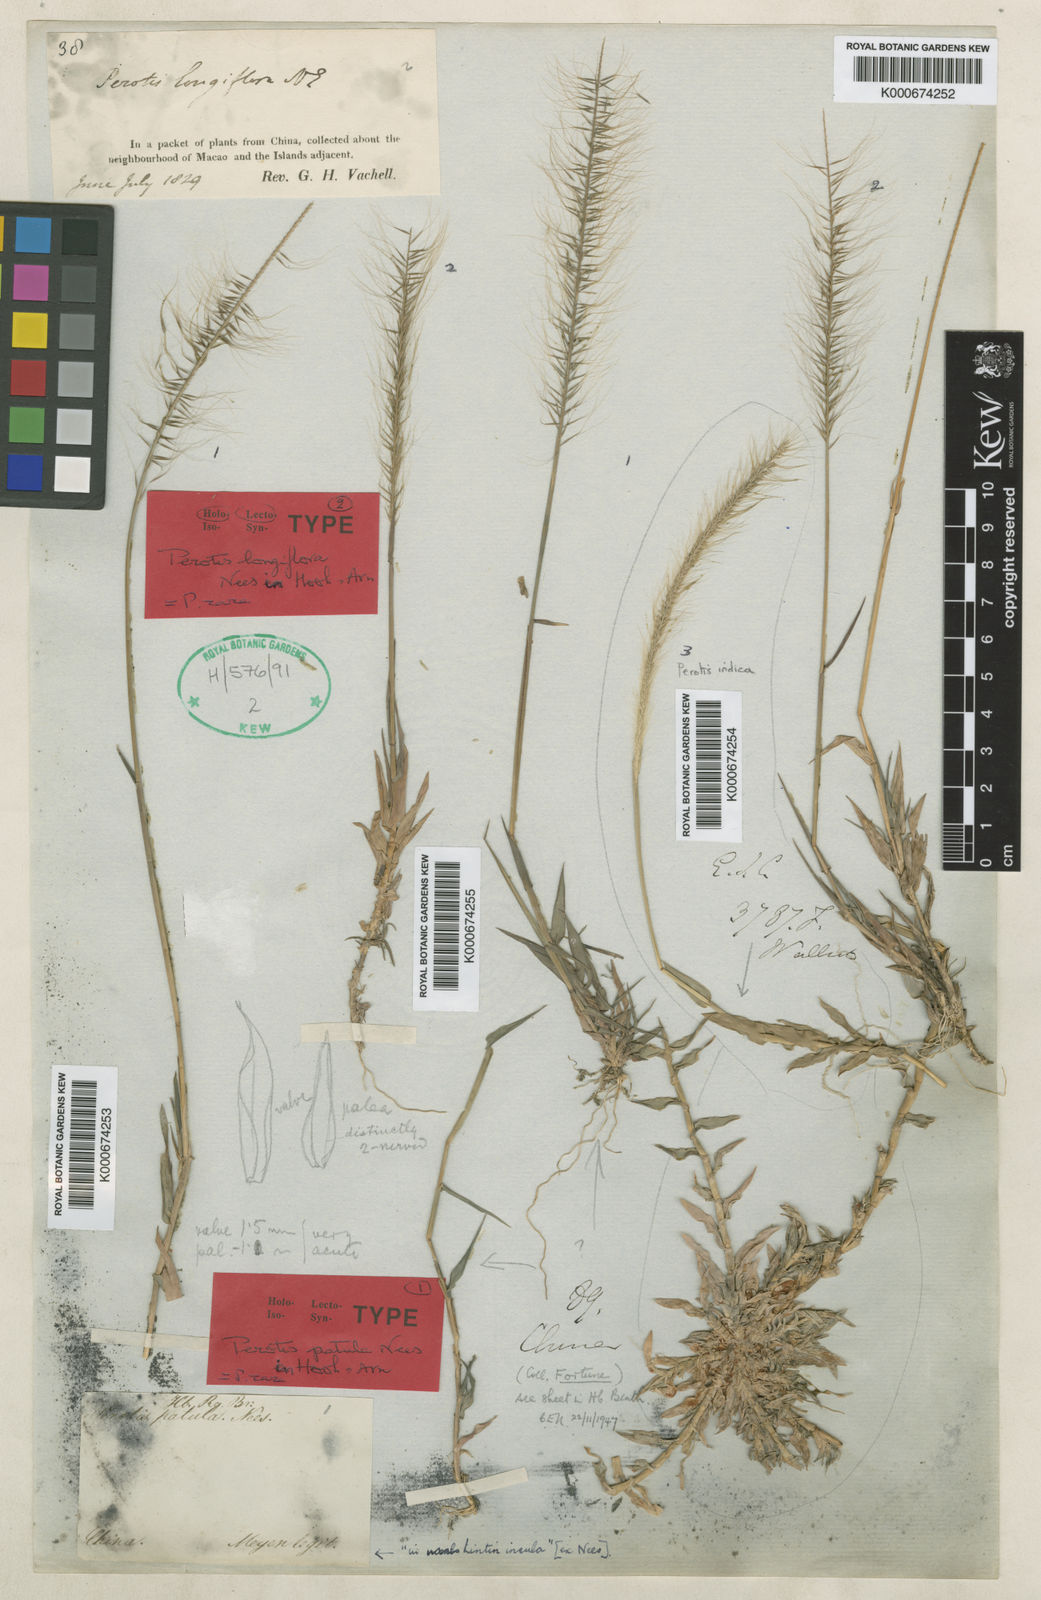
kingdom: Plantae
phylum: Tracheophyta
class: Liliopsida
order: Poales
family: Poaceae
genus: Perotis
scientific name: Perotis rara
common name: Comet grass
